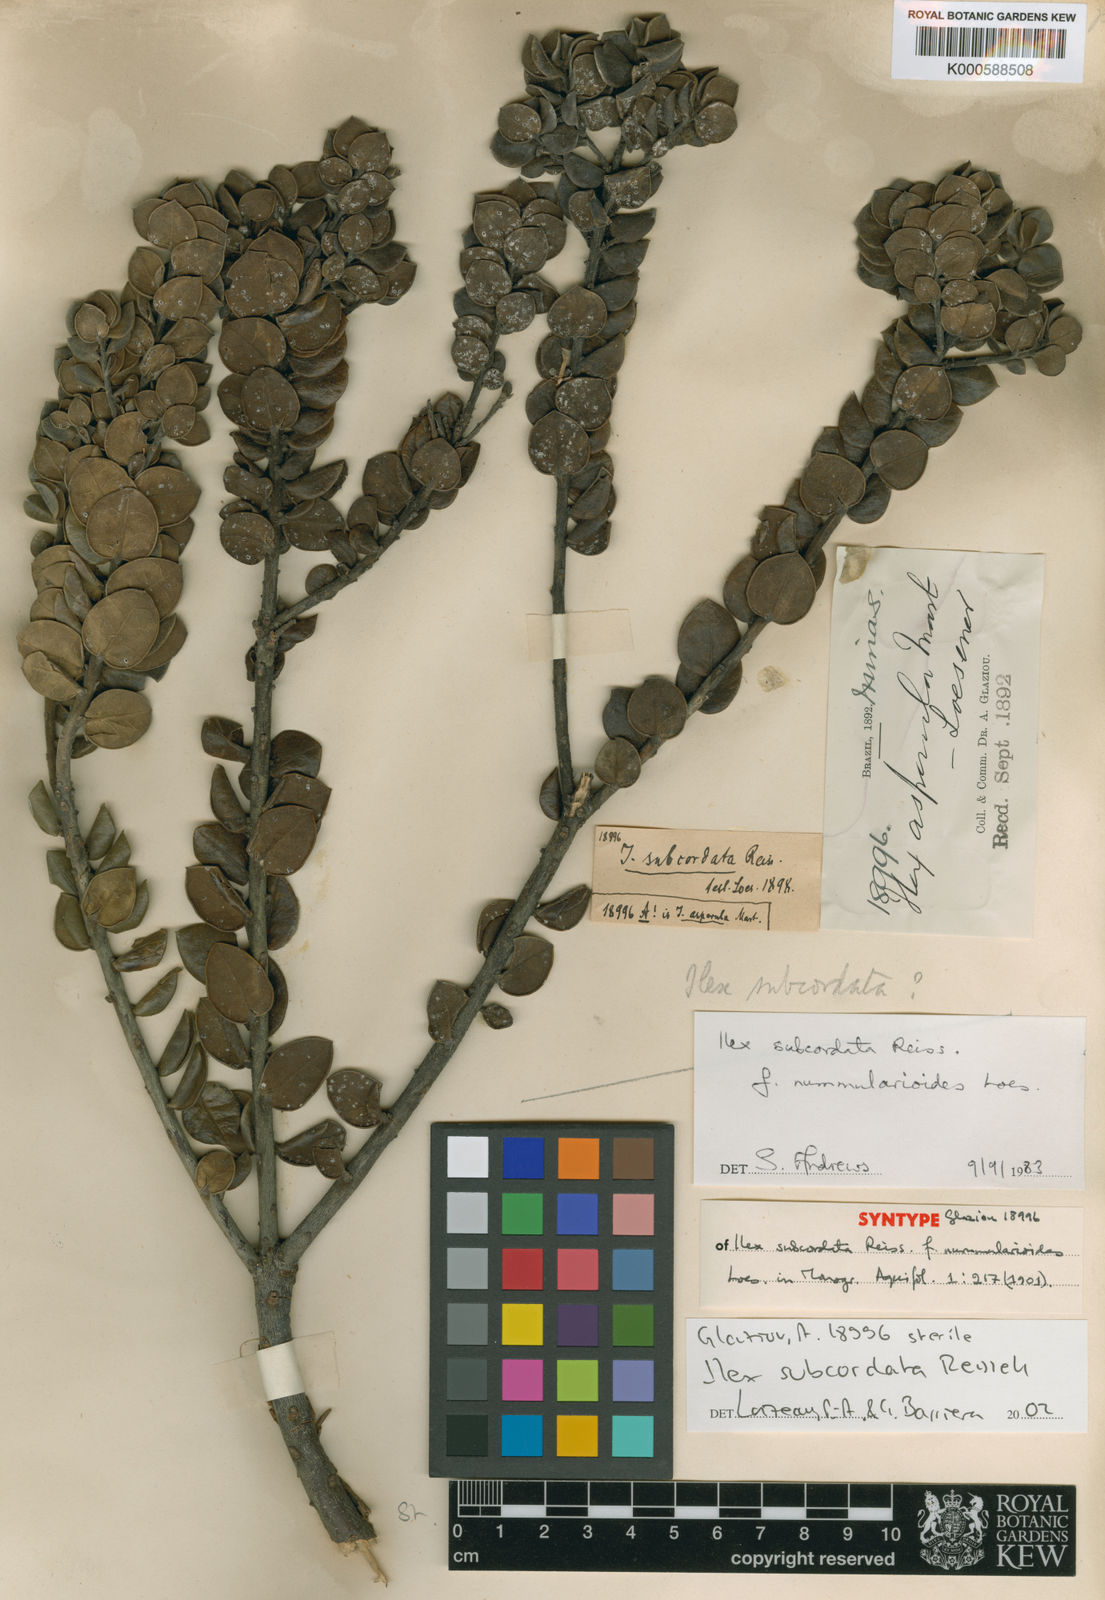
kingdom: Plantae
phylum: Tracheophyta
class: Magnoliopsida
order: Aquifoliales
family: Aquifoliaceae
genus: Ilex
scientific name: Ilex subcordata
